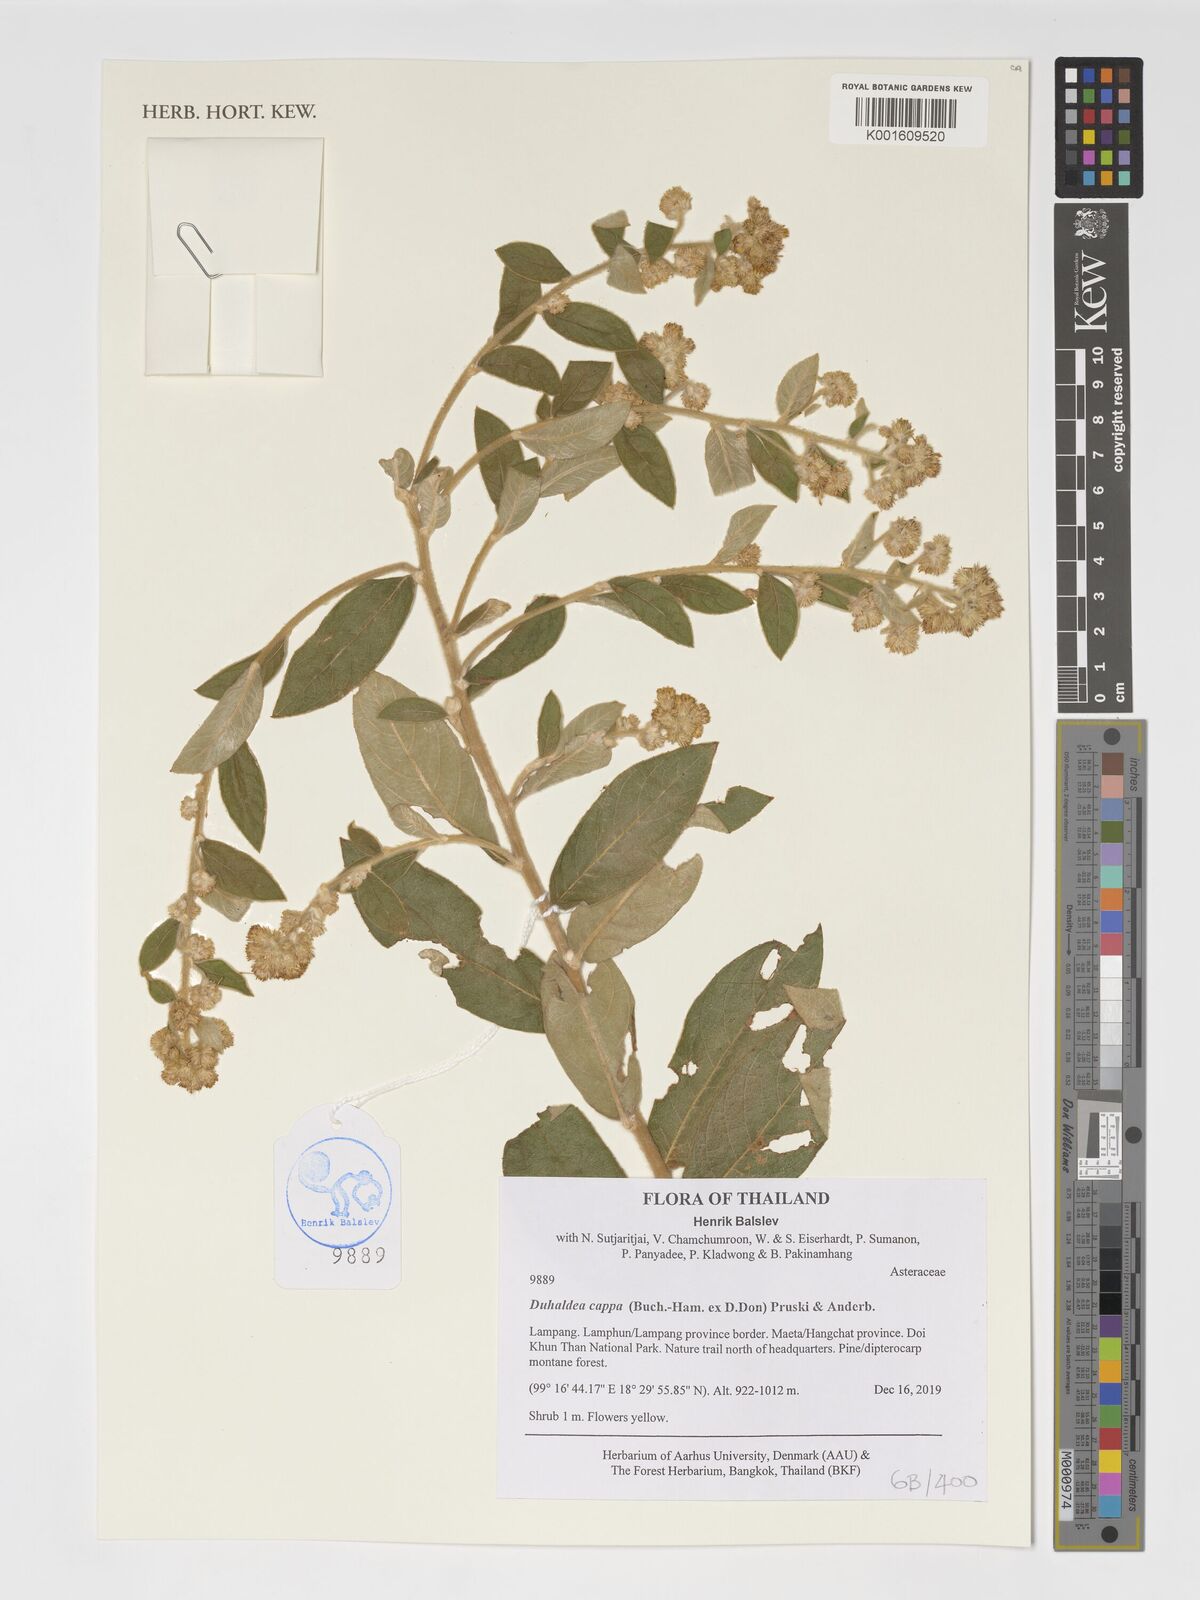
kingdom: Plantae
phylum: Tracheophyta
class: Magnoliopsida
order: Asterales
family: Asteraceae
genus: Duhaldea
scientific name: Duhaldea cappa
